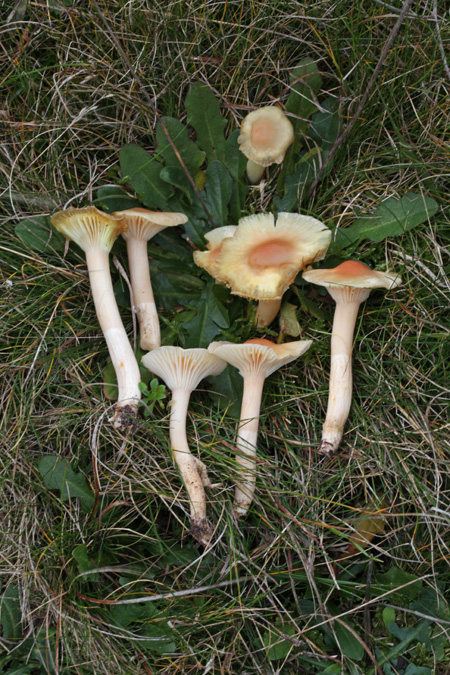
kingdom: Fungi
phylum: Basidiomycota
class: Agaricomycetes
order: Agaricales
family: Hygrophoraceae
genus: Cuphophyllus
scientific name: Cuphophyllus pratensis
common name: eng-vokshat
